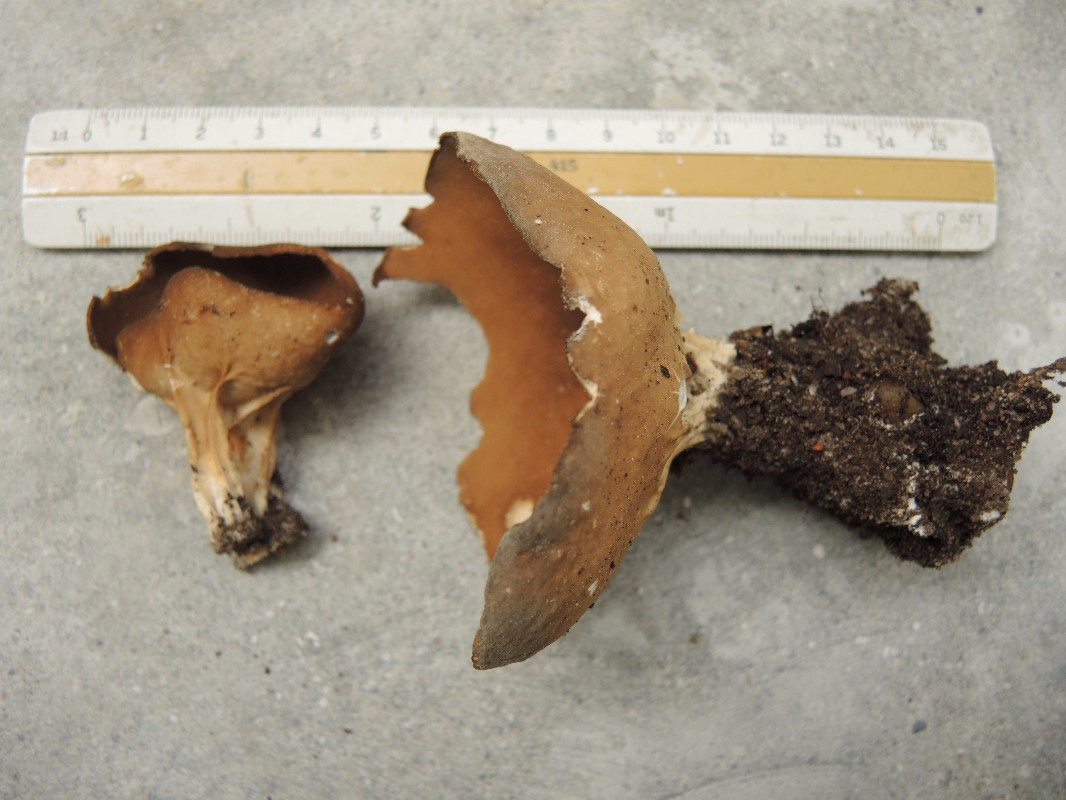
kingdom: Fungi
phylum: Ascomycota
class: Pezizomycetes
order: Pezizales
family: Helvellaceae
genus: Helvella
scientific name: Helvella acetabulum
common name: pokal-foldhat
